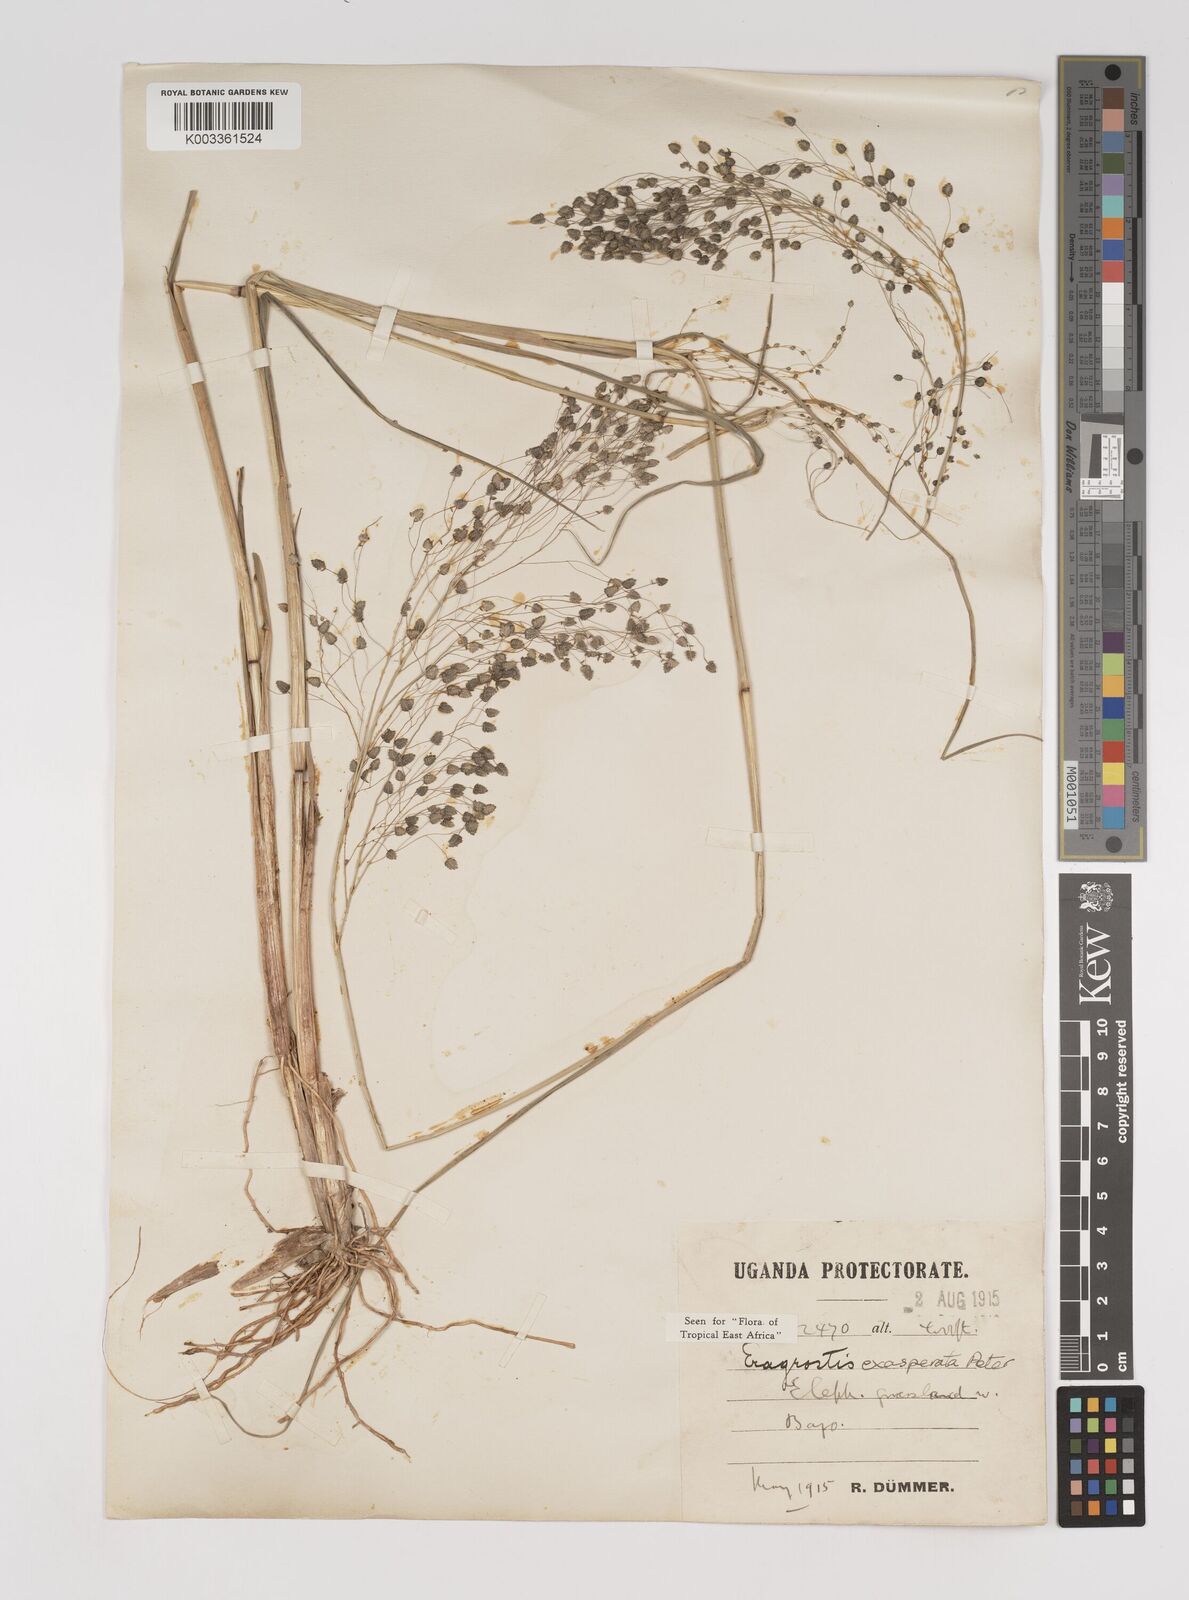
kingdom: Plantae
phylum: Tracheophyta
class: Liliopsida
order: Poales
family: Poaceae
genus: Eragrostis
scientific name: Eragrostis exasperata
